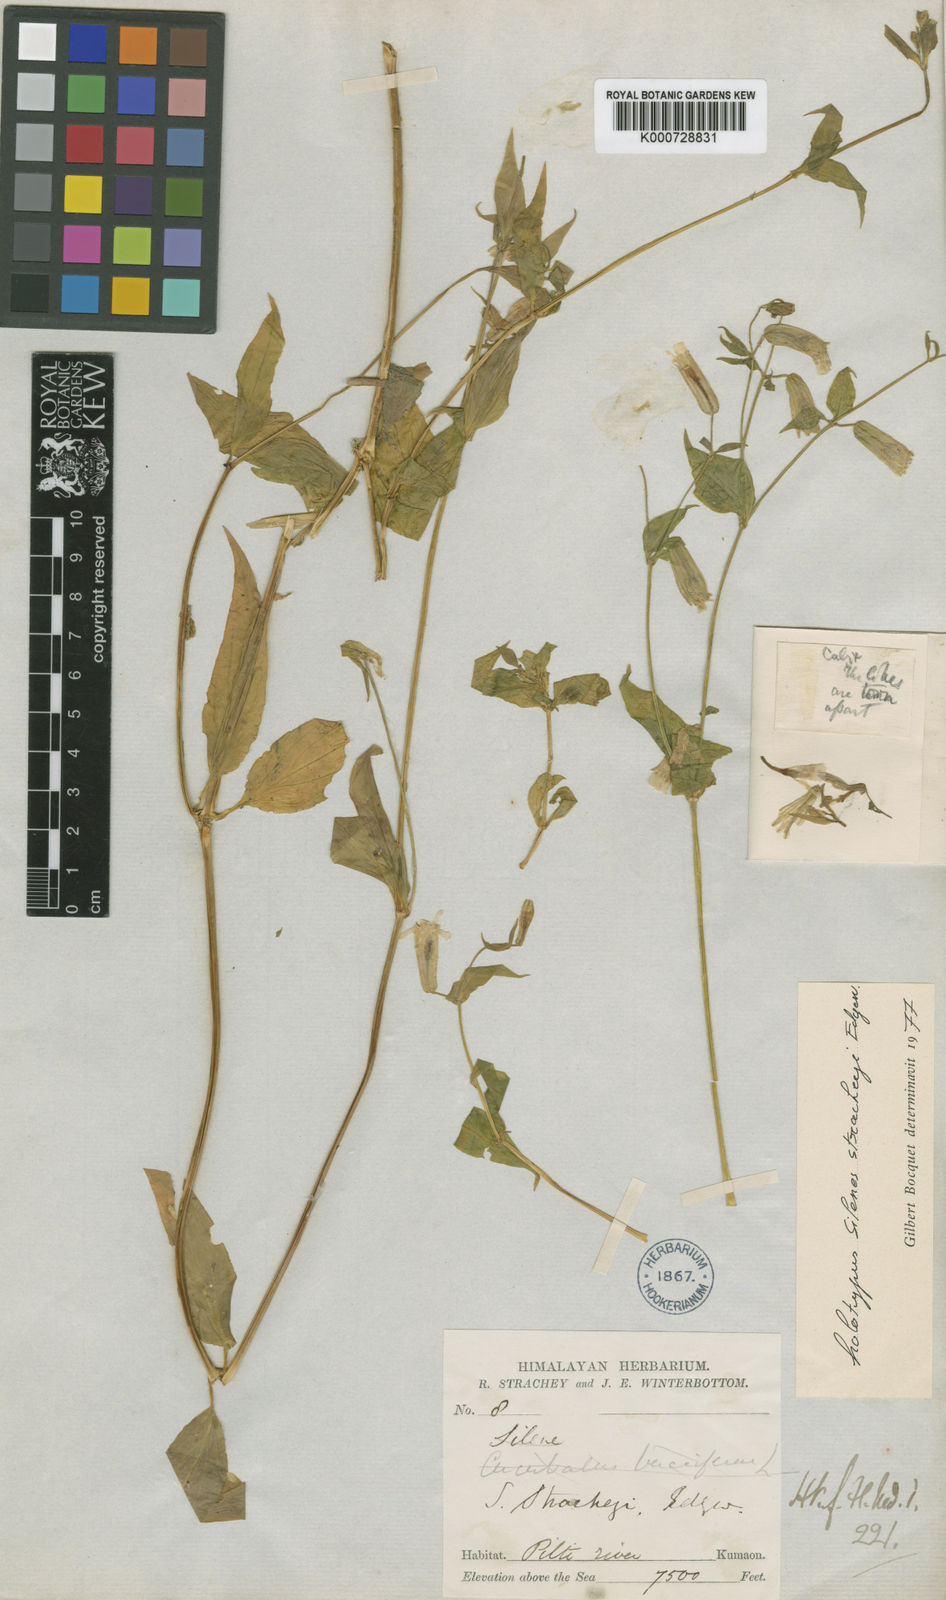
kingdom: Plantae
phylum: Tracheophyta
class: Magnoliopsida
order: Caryophyllales
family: Caryophyllaceae
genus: Silene
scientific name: Silene stracheyi
